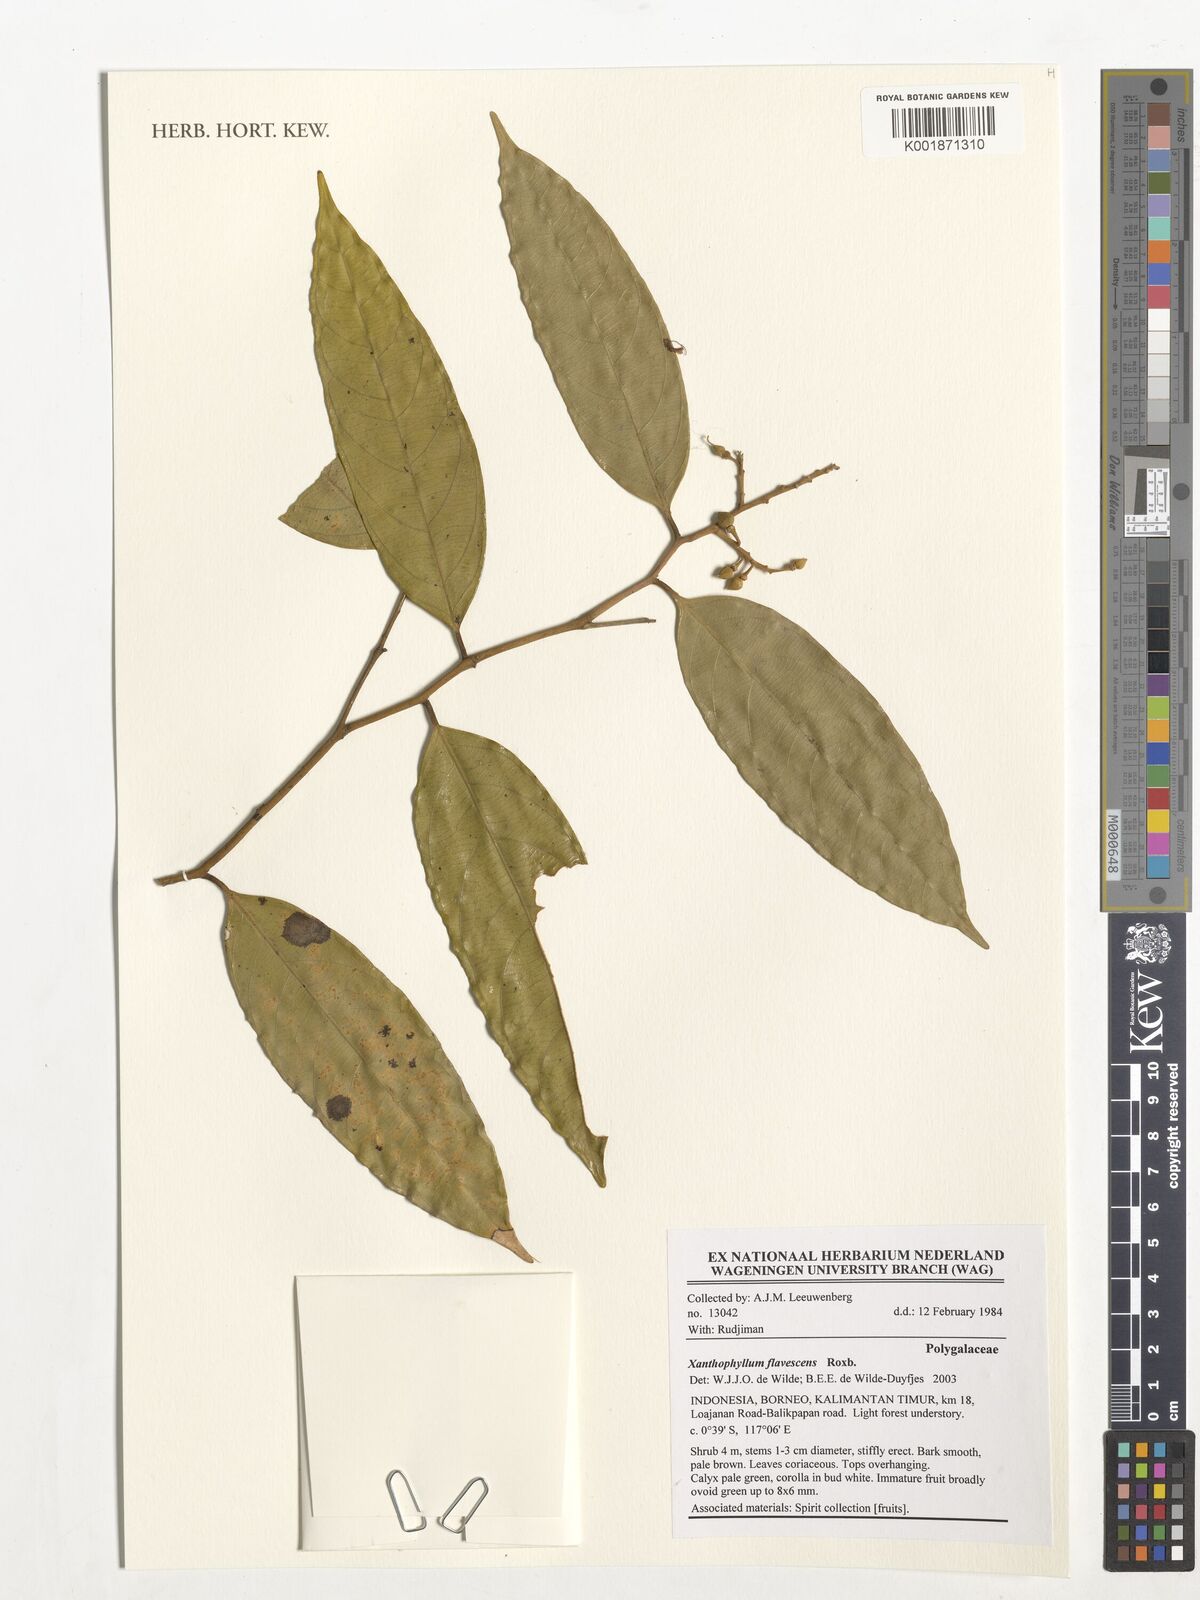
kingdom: Plantae
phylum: Tracheophyta
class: Magnoliopsida
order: Fabales
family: Polygalaceae
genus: Xanthophyllum
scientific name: Xanthophyllum flavescens
